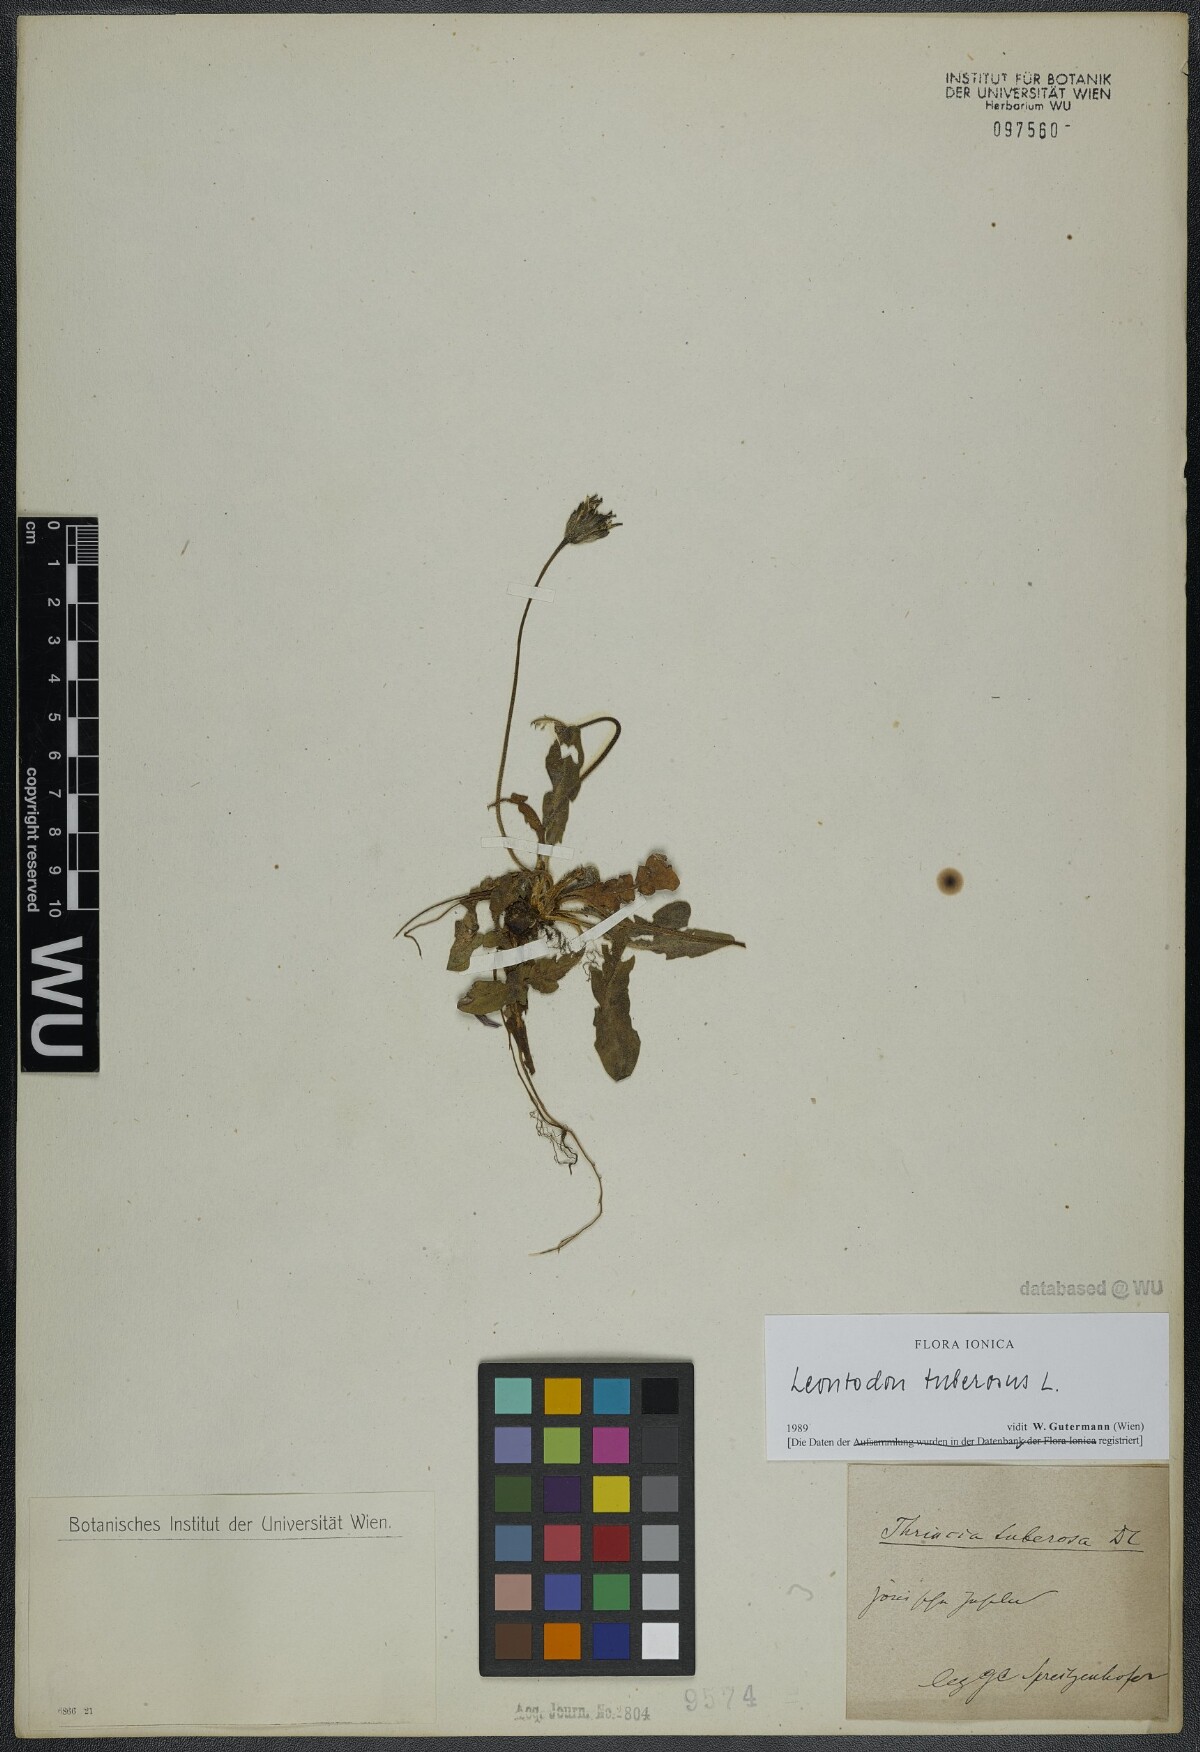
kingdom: Plantae
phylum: Tracheophyta
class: Magnoliopsida
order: Asterales
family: Asteraceae
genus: Thrincia
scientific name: Thrincia tuberosa
